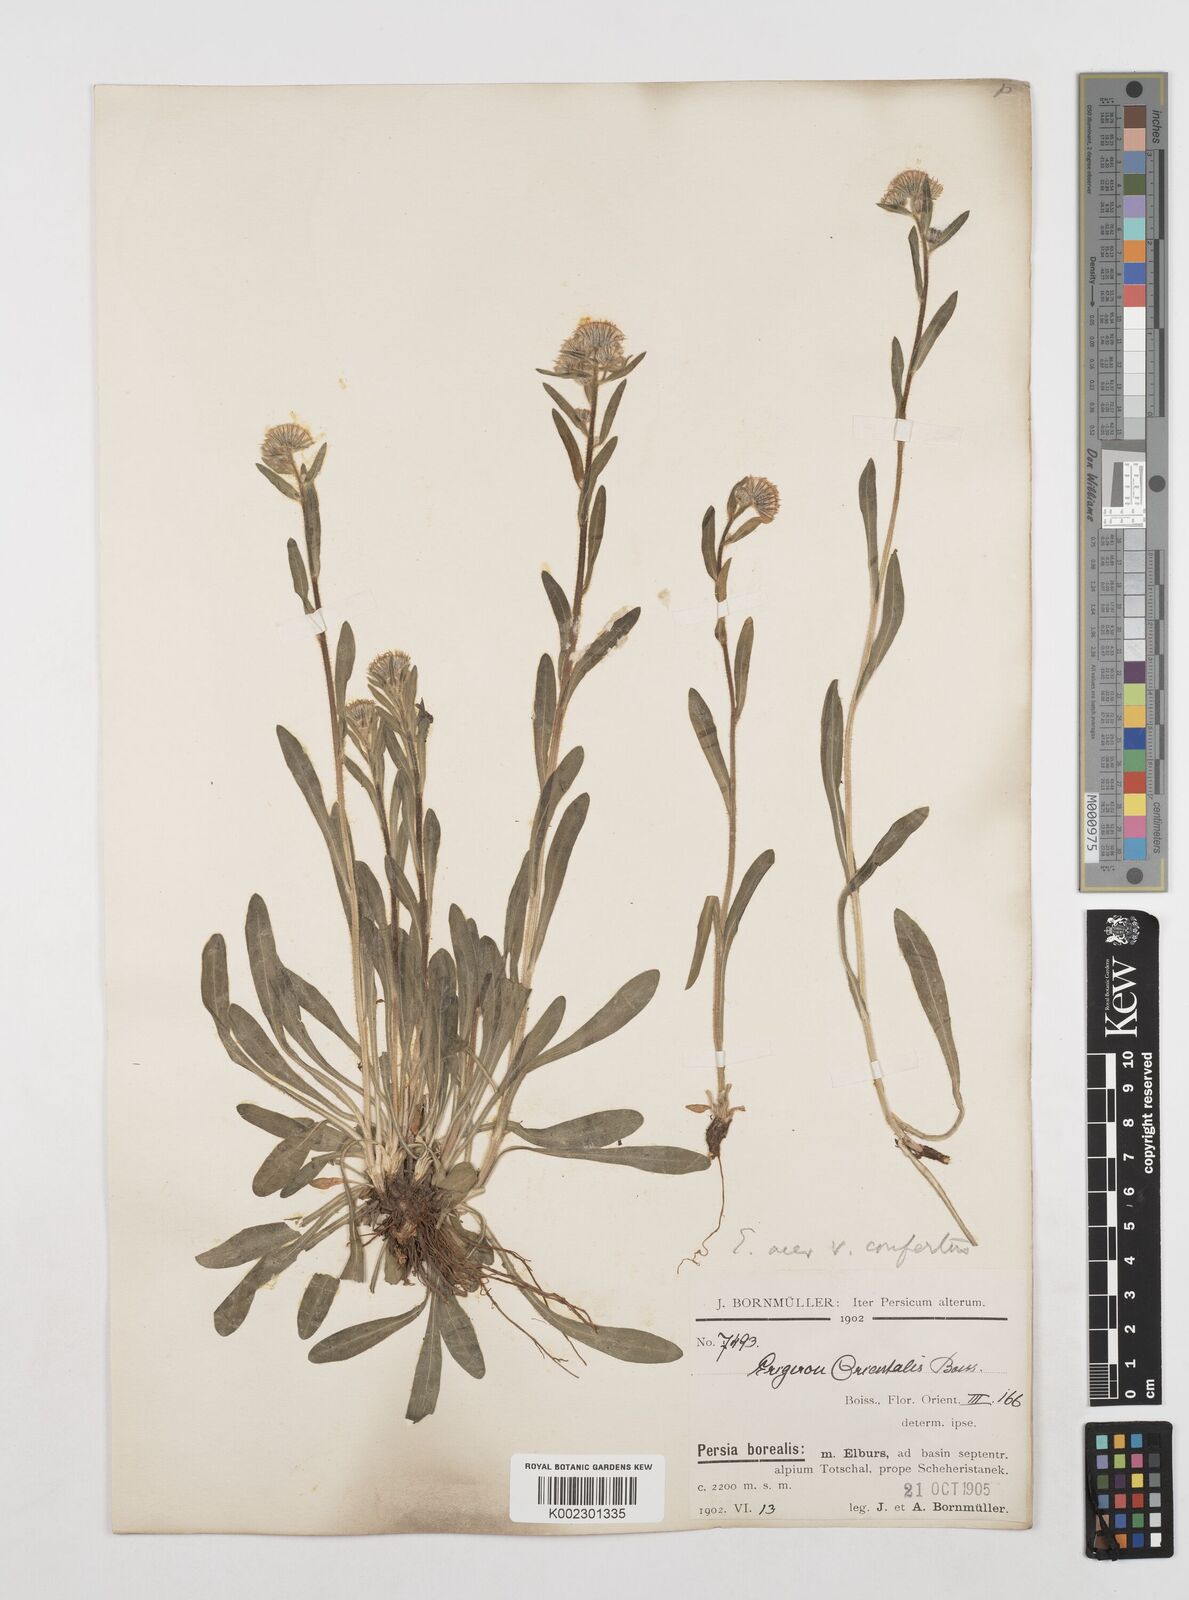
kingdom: Plantae
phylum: Tracheophyta
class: Magnoliopsida
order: Asterales
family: Asteraceae
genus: Erigeron
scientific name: Erigeron acris
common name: Blue fleabane
